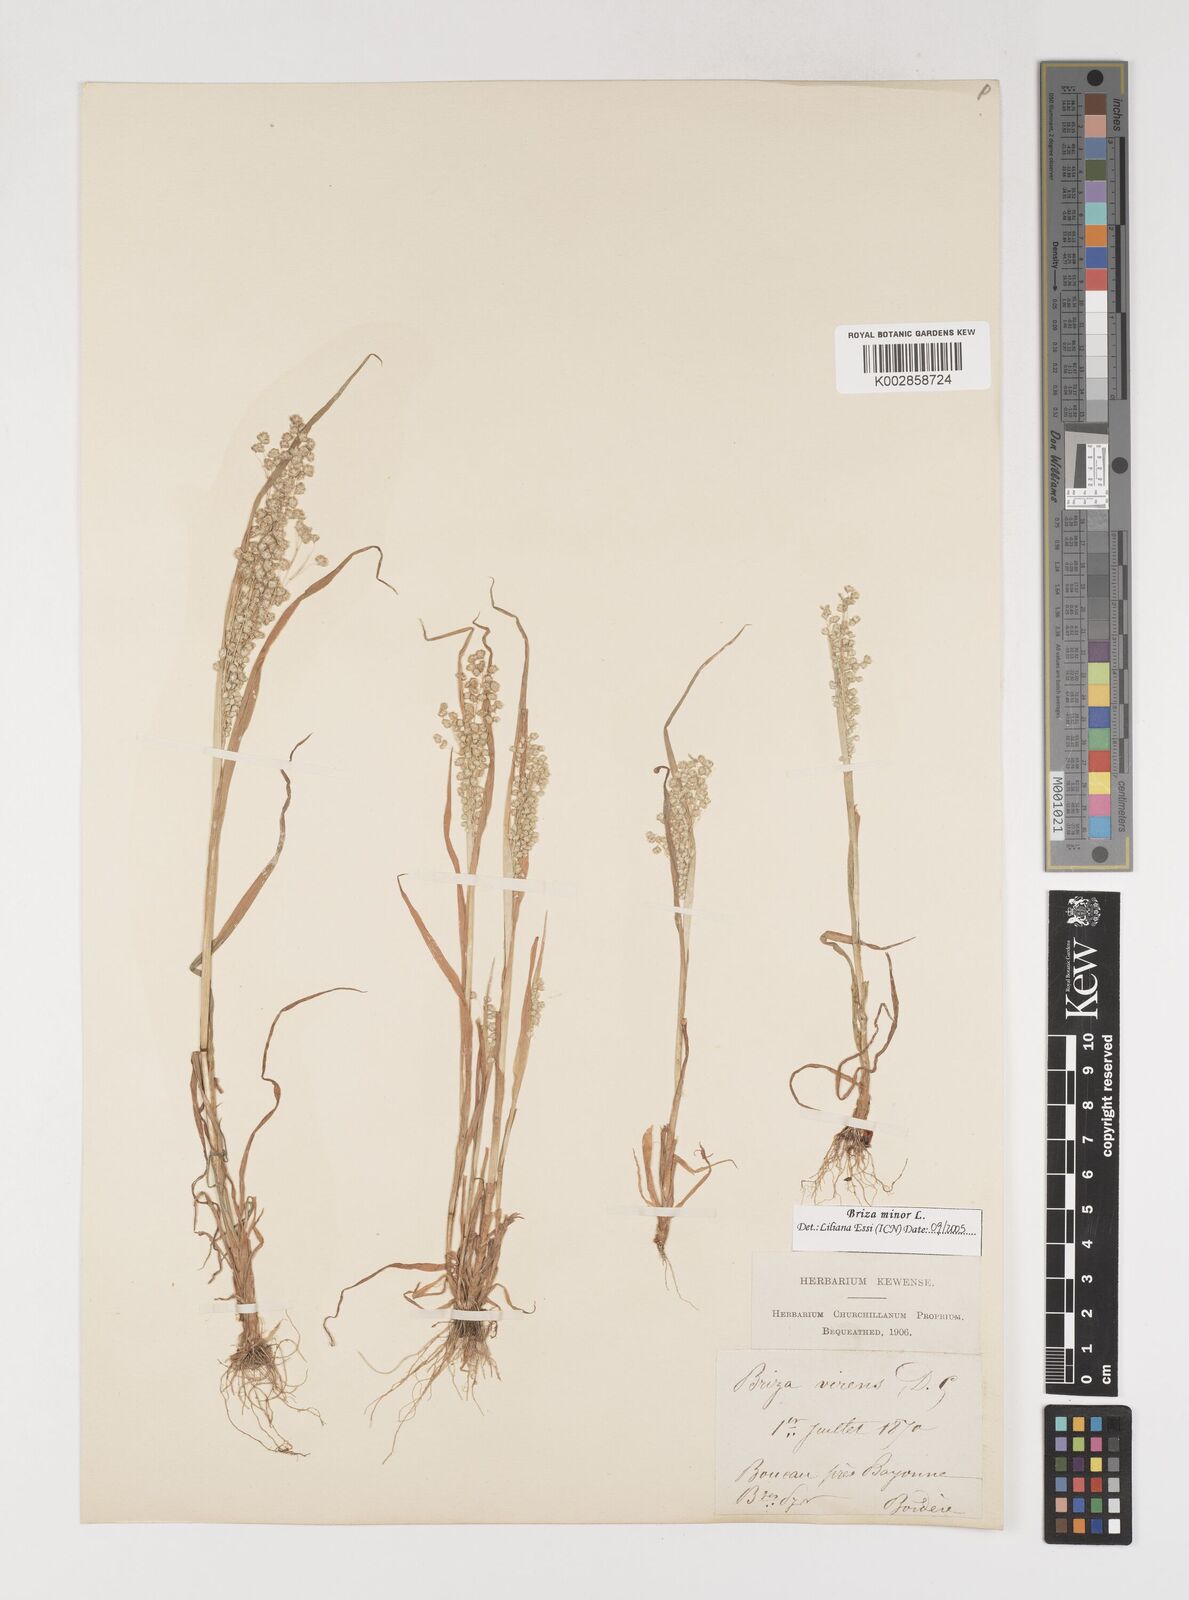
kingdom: Plantae
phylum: Tracheophyta
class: Liliopsida
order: Poales
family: Poaceae
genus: Briza
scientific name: Briza minor
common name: Lesser quaking-grass
